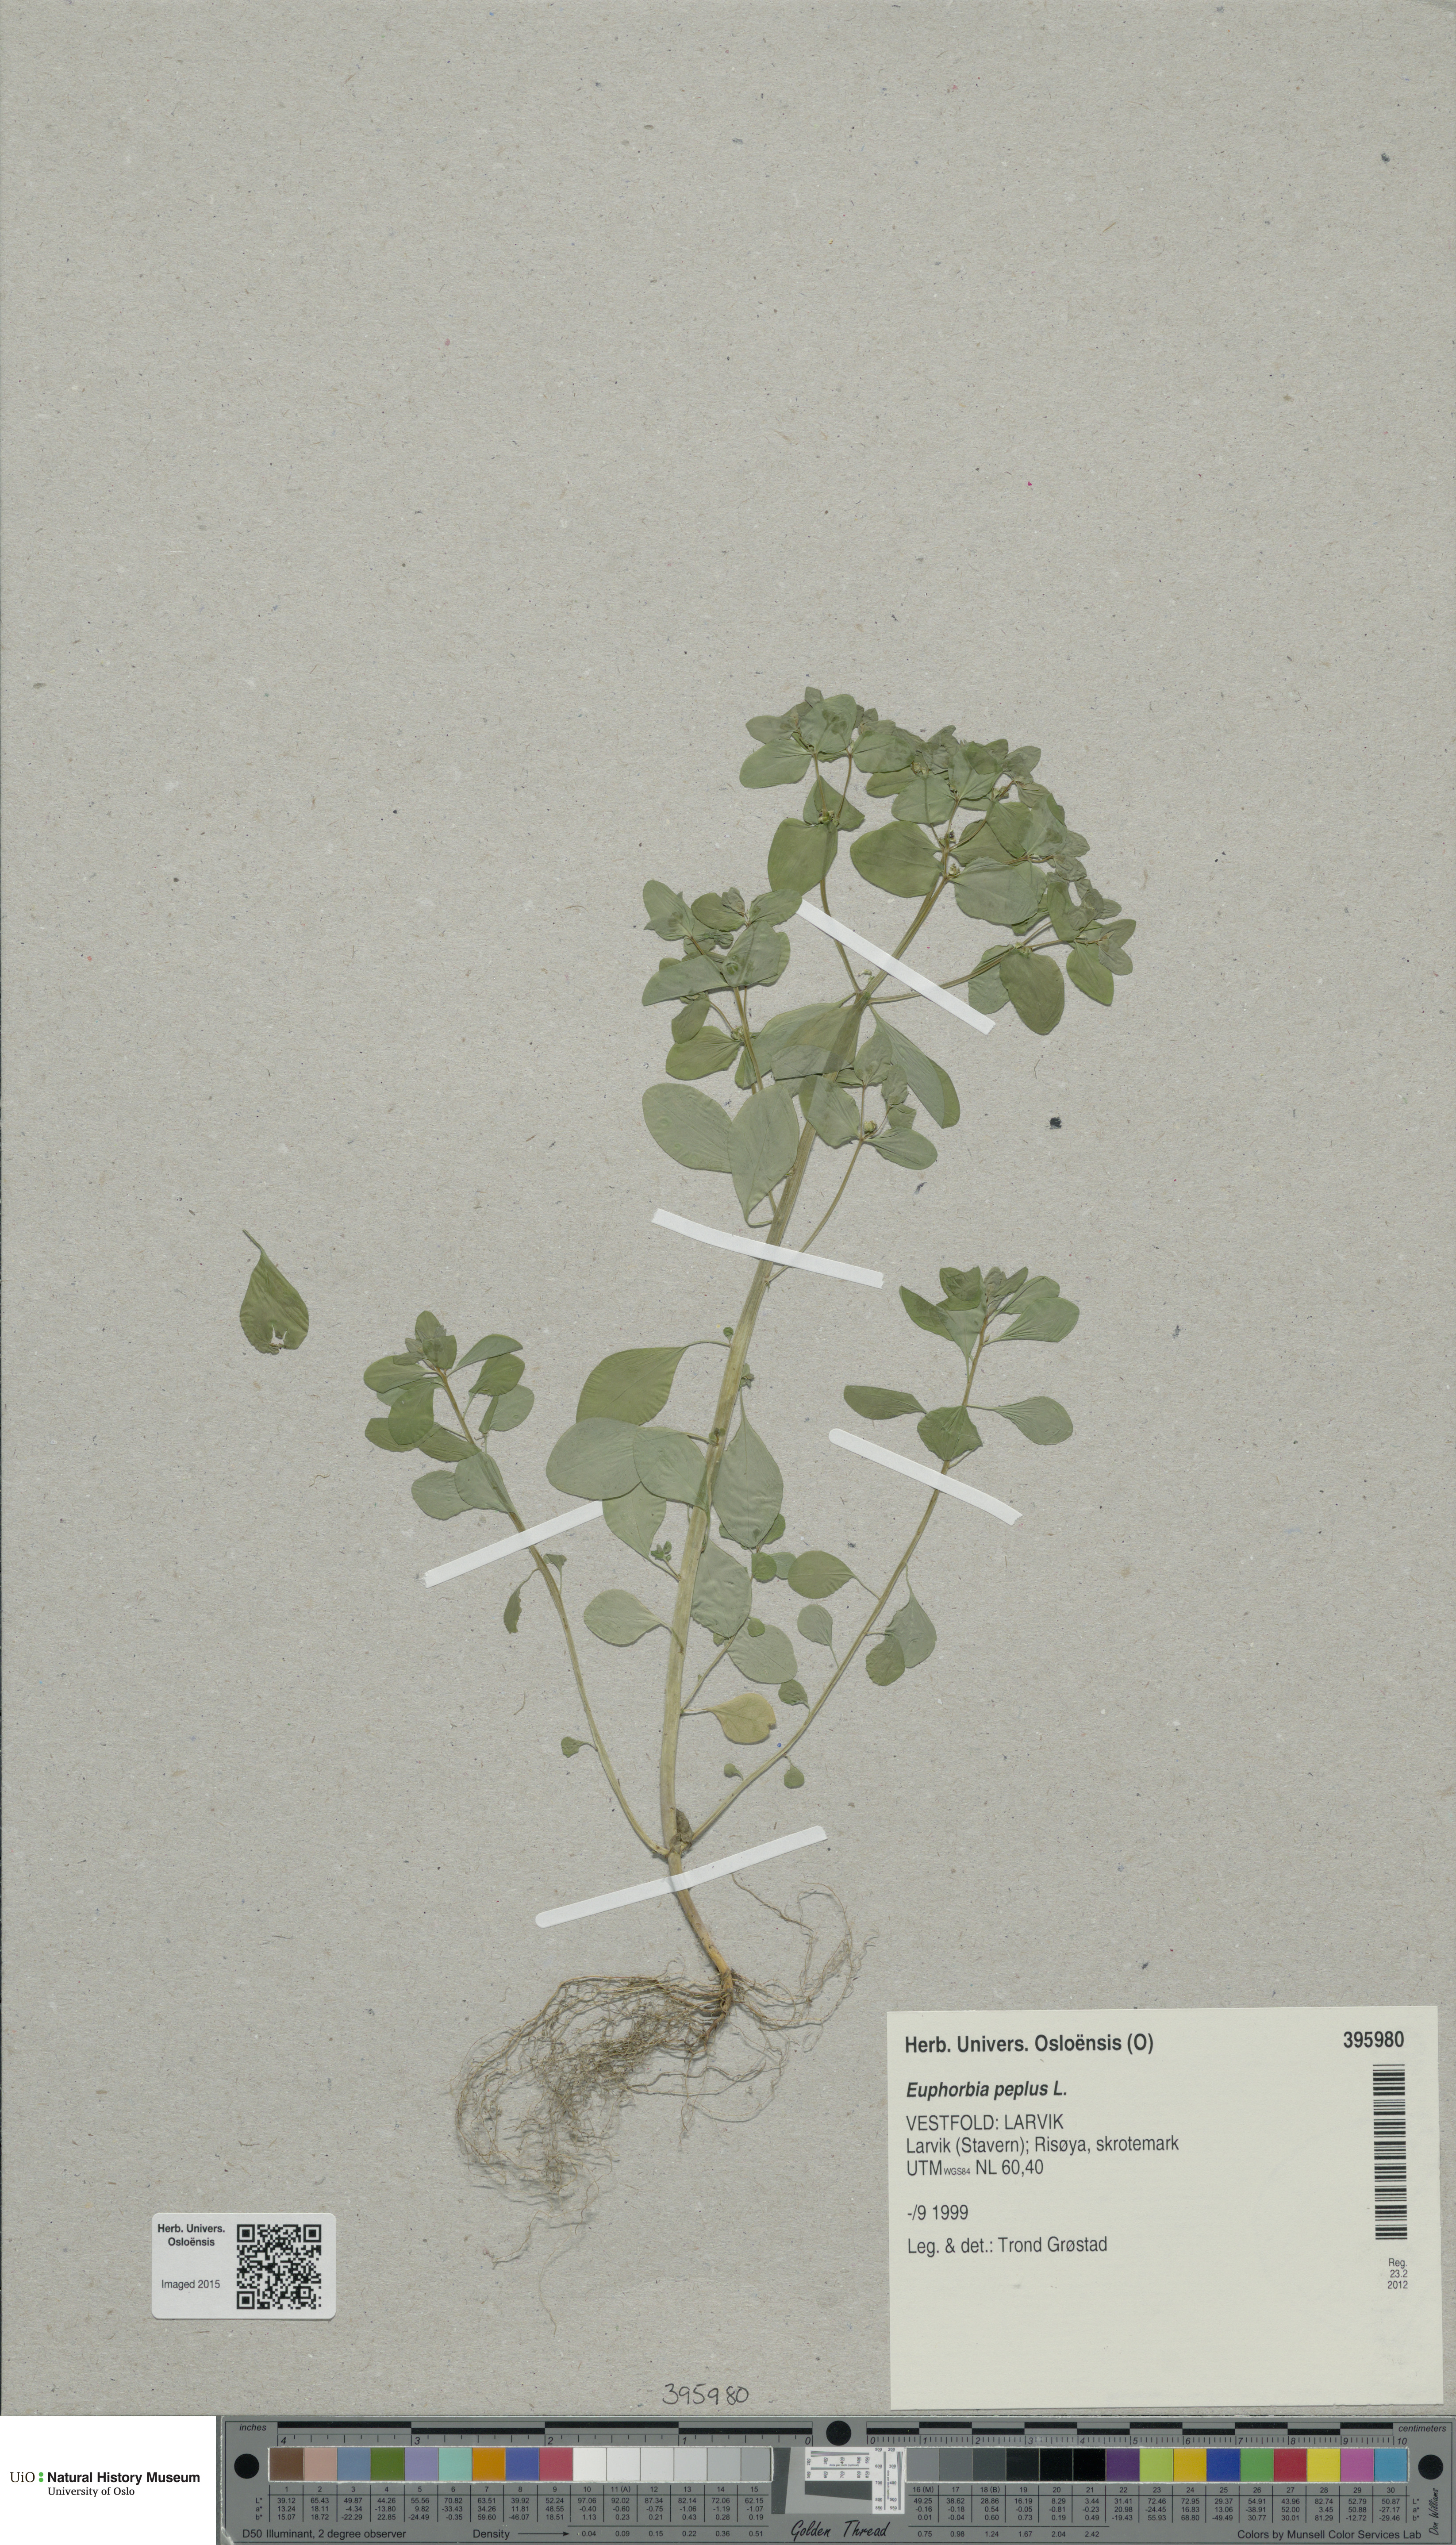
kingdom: Plantae
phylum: Tracheophyta
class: Magnoliopsida
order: Malpighiales
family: Euphorbiaceae
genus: Euphorbia
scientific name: Euphorbia peplus
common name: Petty spurge
